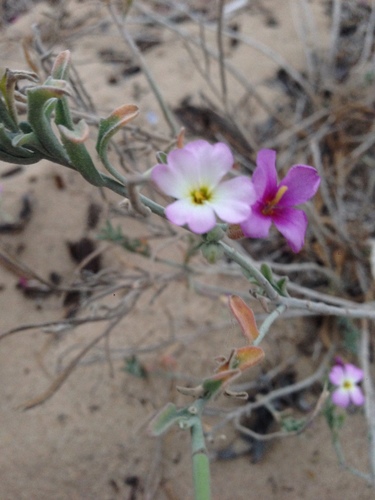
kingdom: Plantae
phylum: Tracheophyta
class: Magnoliopsida
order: Brassicales
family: Brassicaceae
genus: Marcuskochia
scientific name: Marcuskochia littorea
